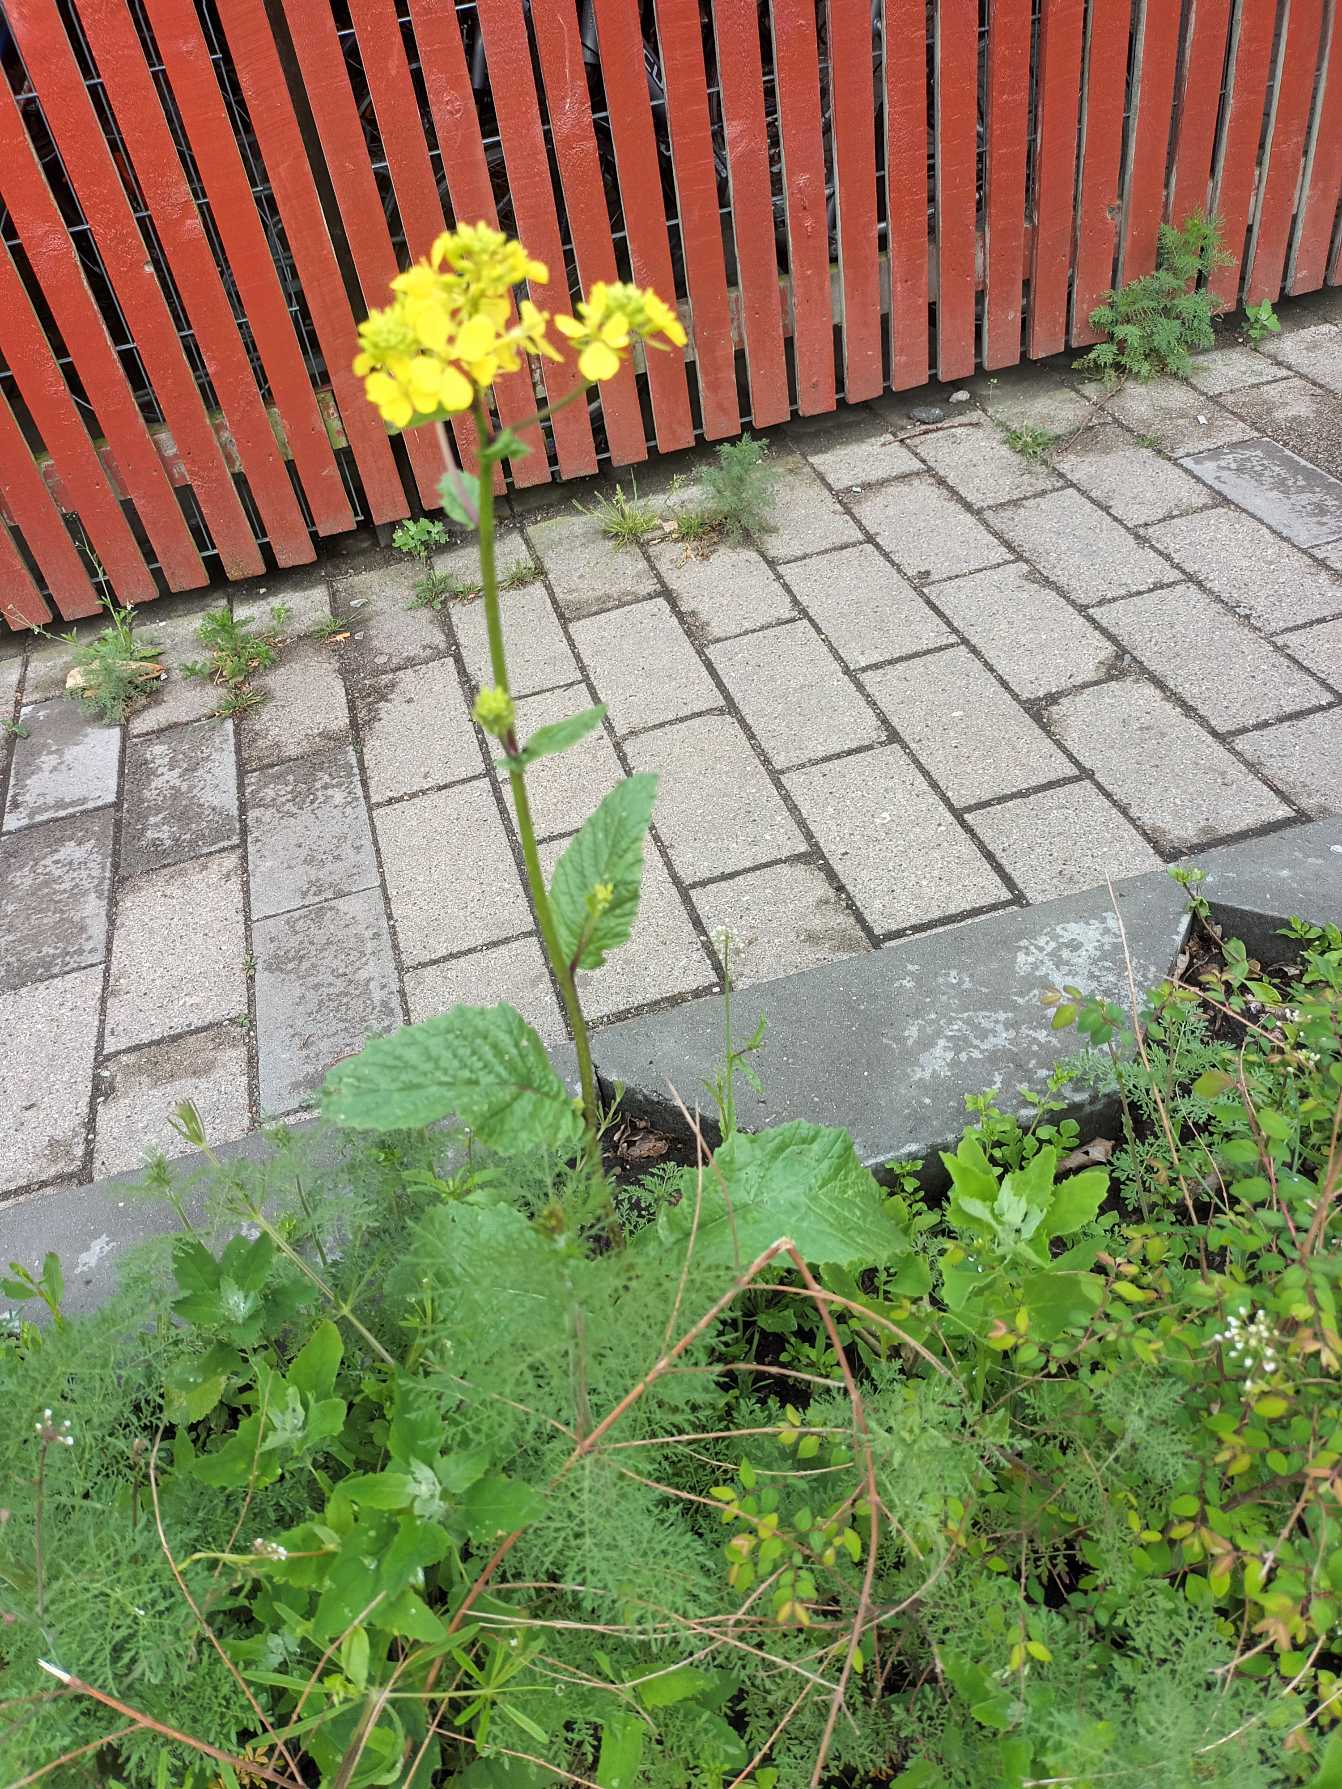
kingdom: Plantae
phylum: Tracheophyta
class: Magnoliopsida
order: Brassicales
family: Brassicaceae
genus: Sinapis
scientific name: Sinapis arvensis
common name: Ager-sennep
